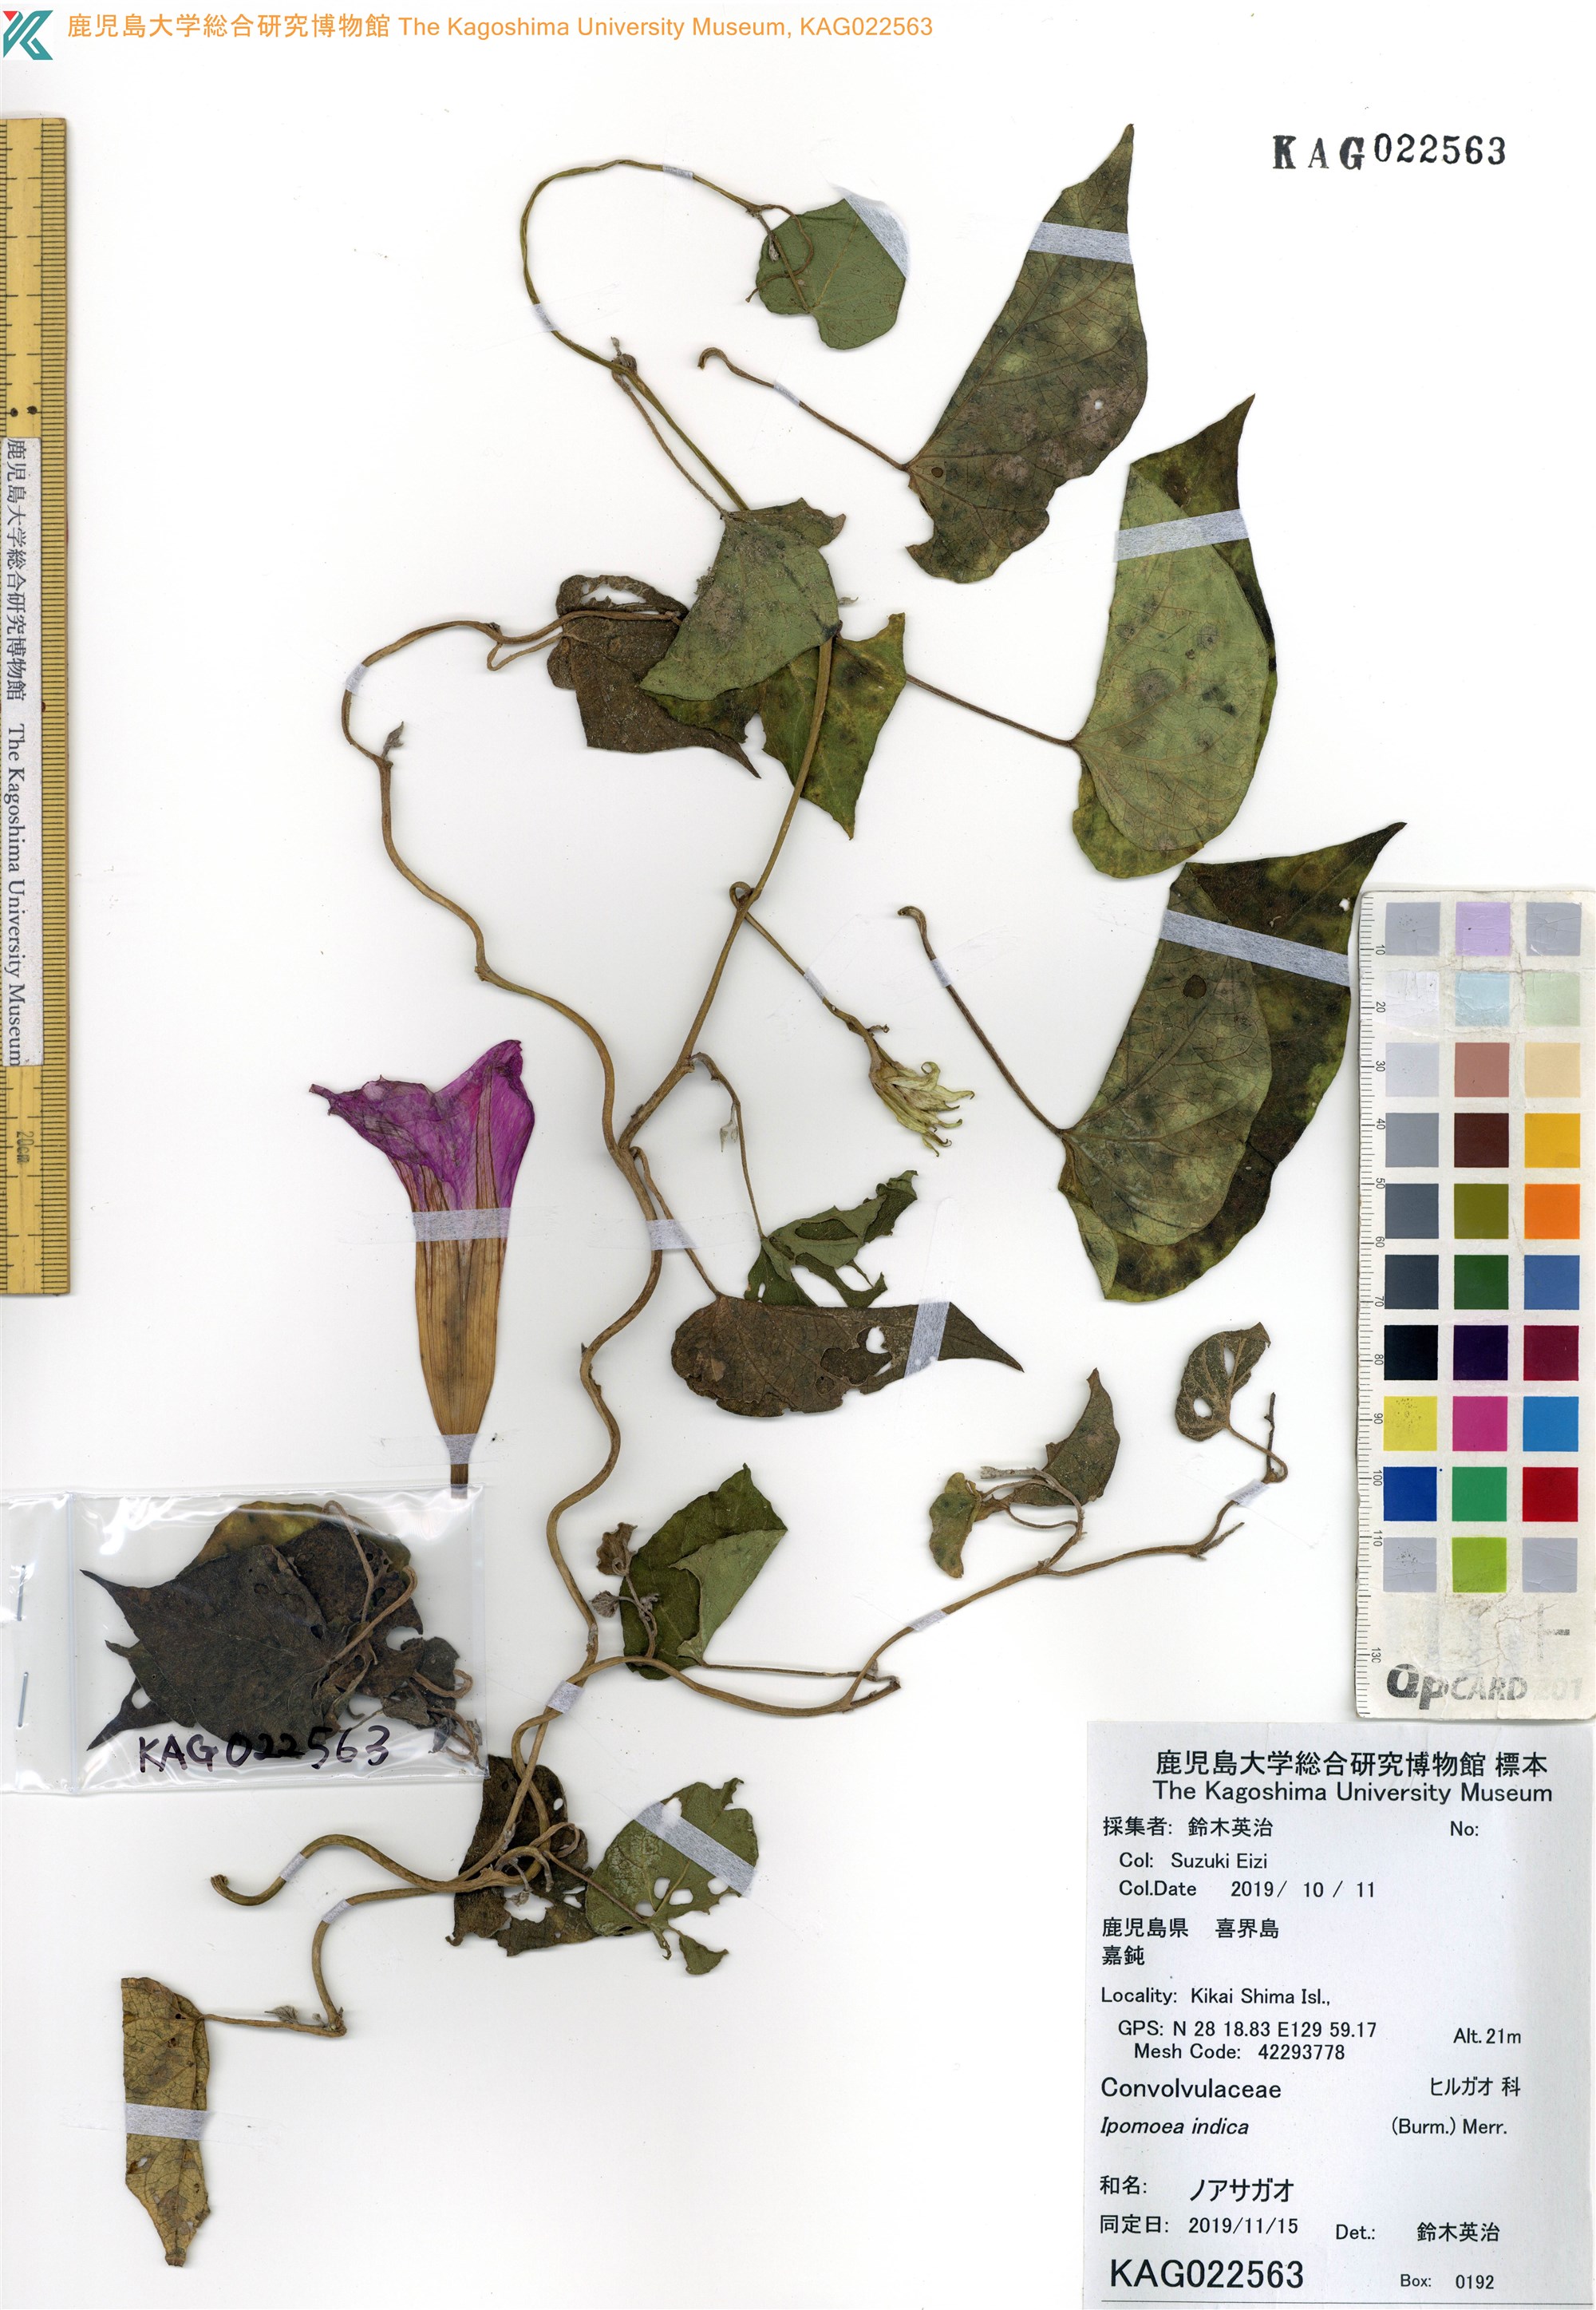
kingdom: Plantae
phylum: Tracheophyta
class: Magnoliopsida
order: Solanales
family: Convolvulaceae
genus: Ipomoea
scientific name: Ipomoea indica
